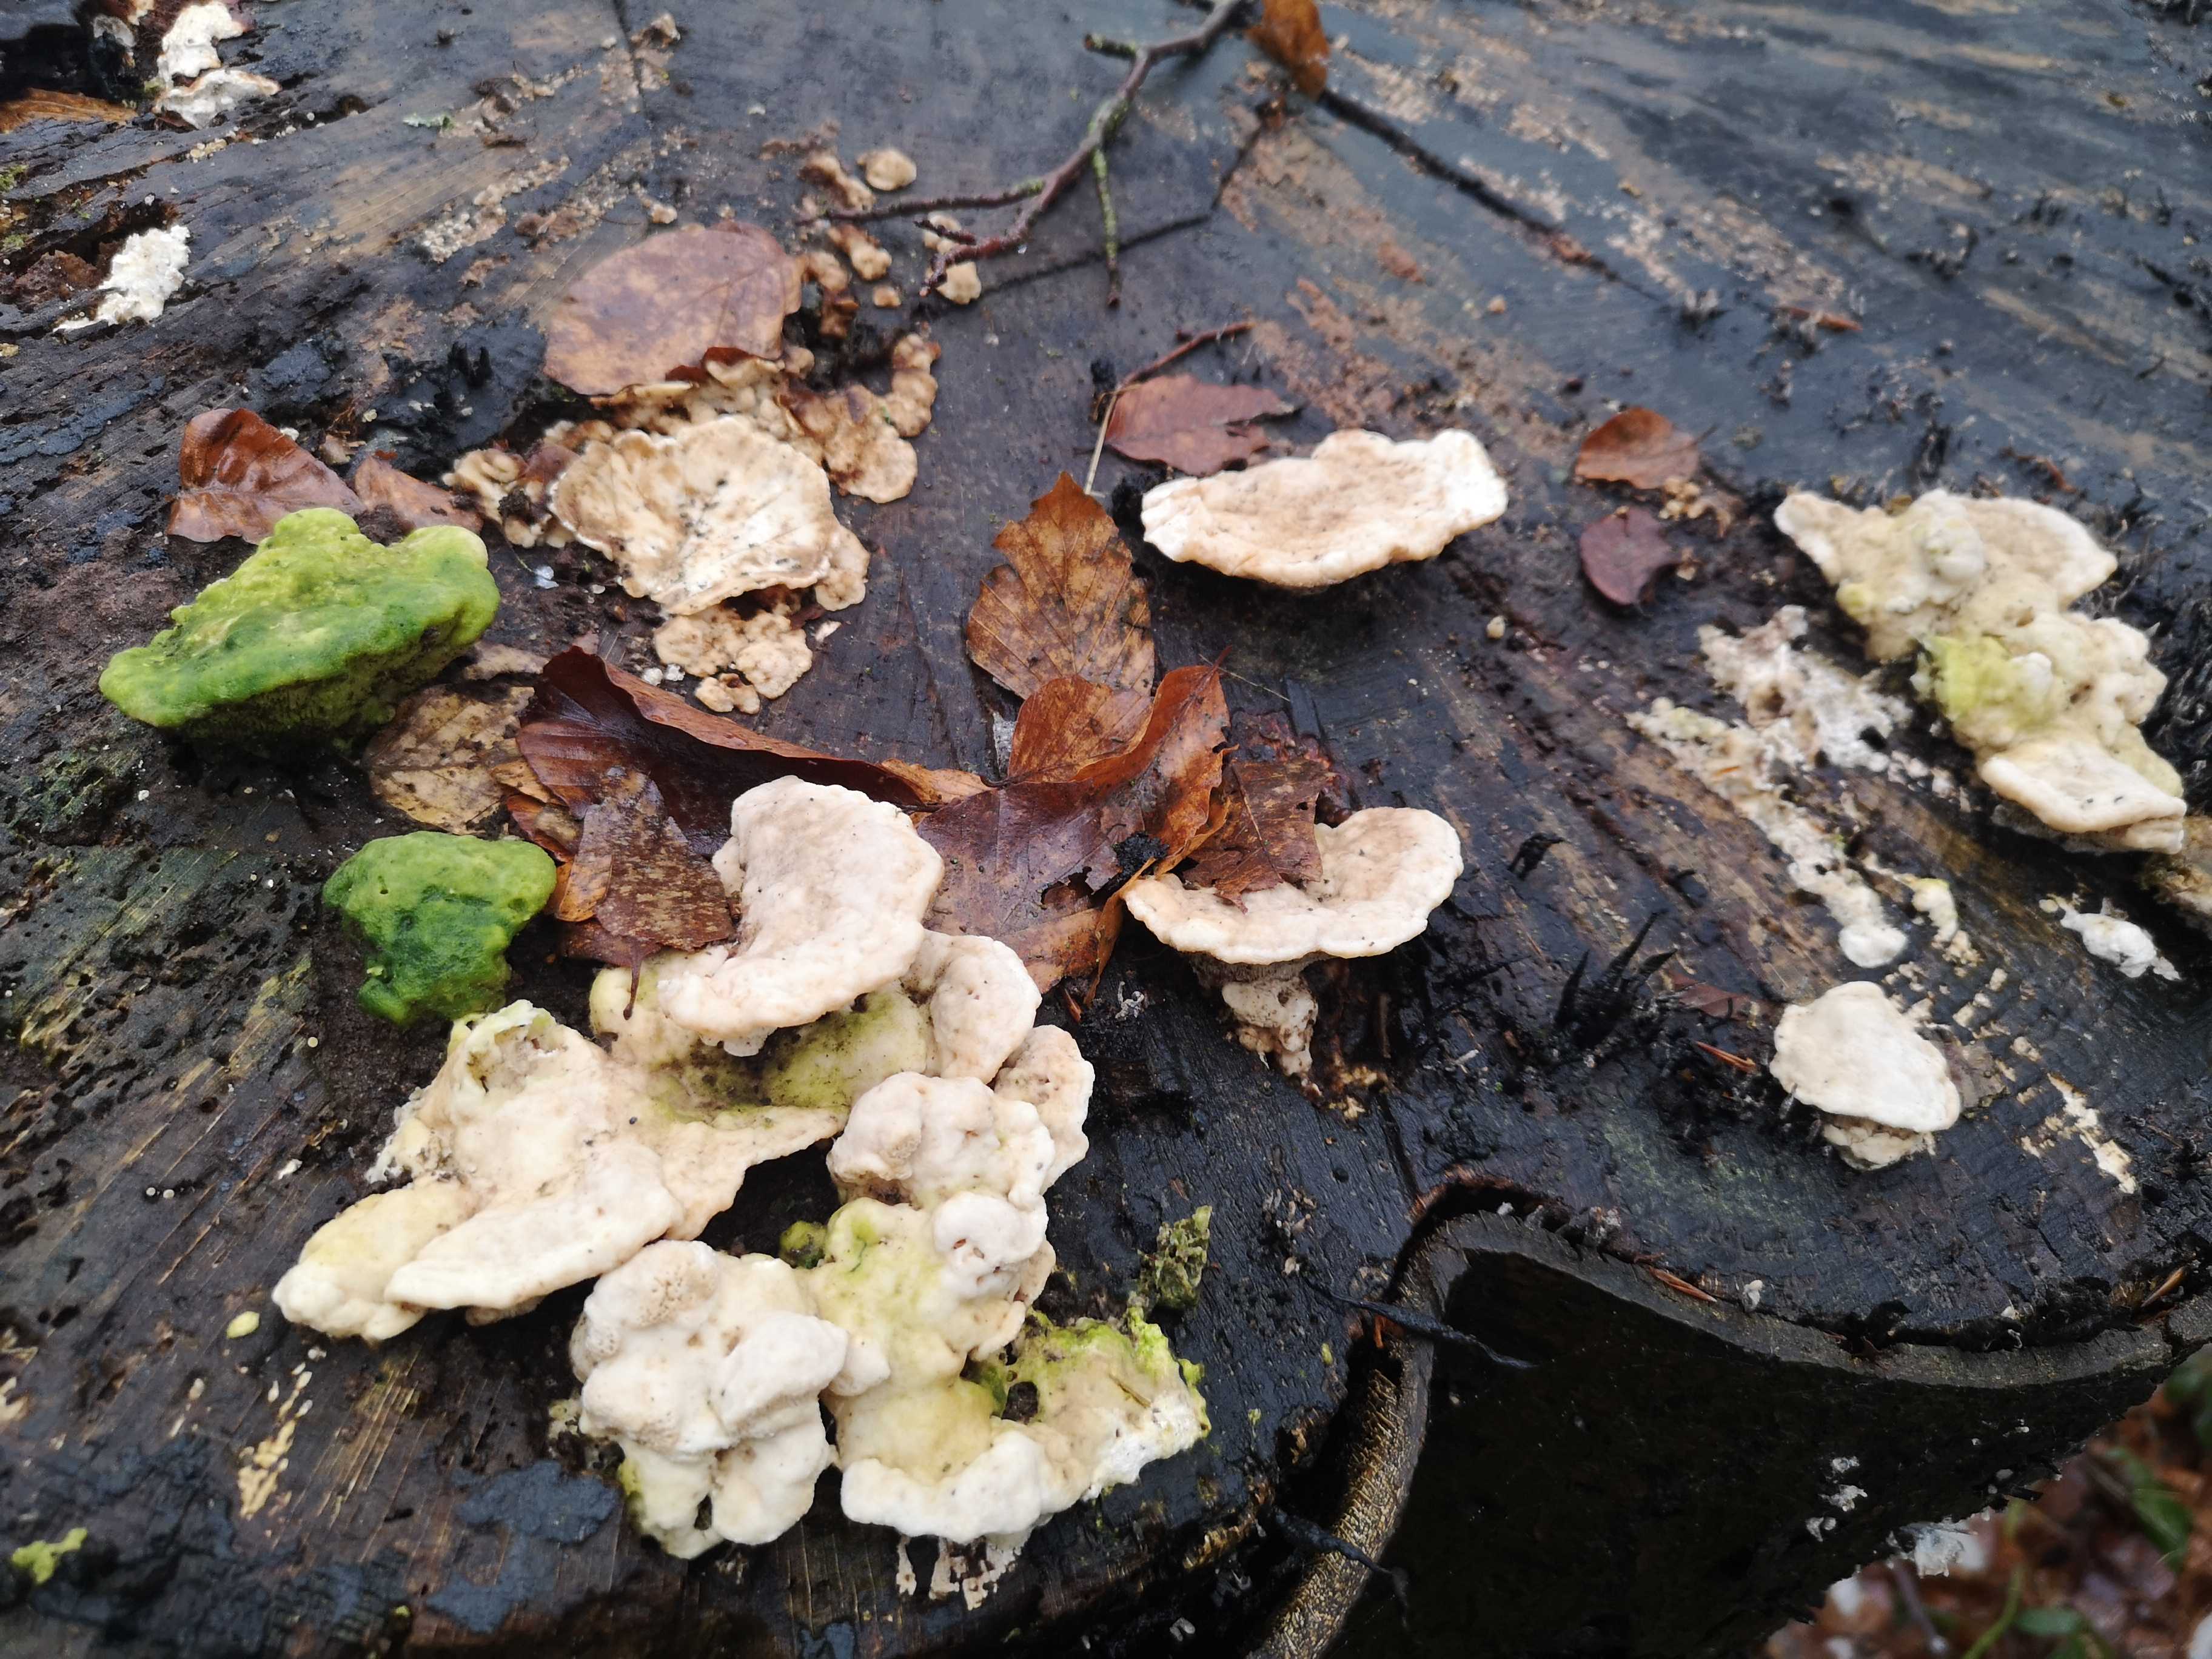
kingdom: Fungi
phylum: Basidiomycota
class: Agaricomycetes
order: Polyporales
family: Polyporaceae
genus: Trametes
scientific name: Trametes gibbosa
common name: puklet læderporesvamp
